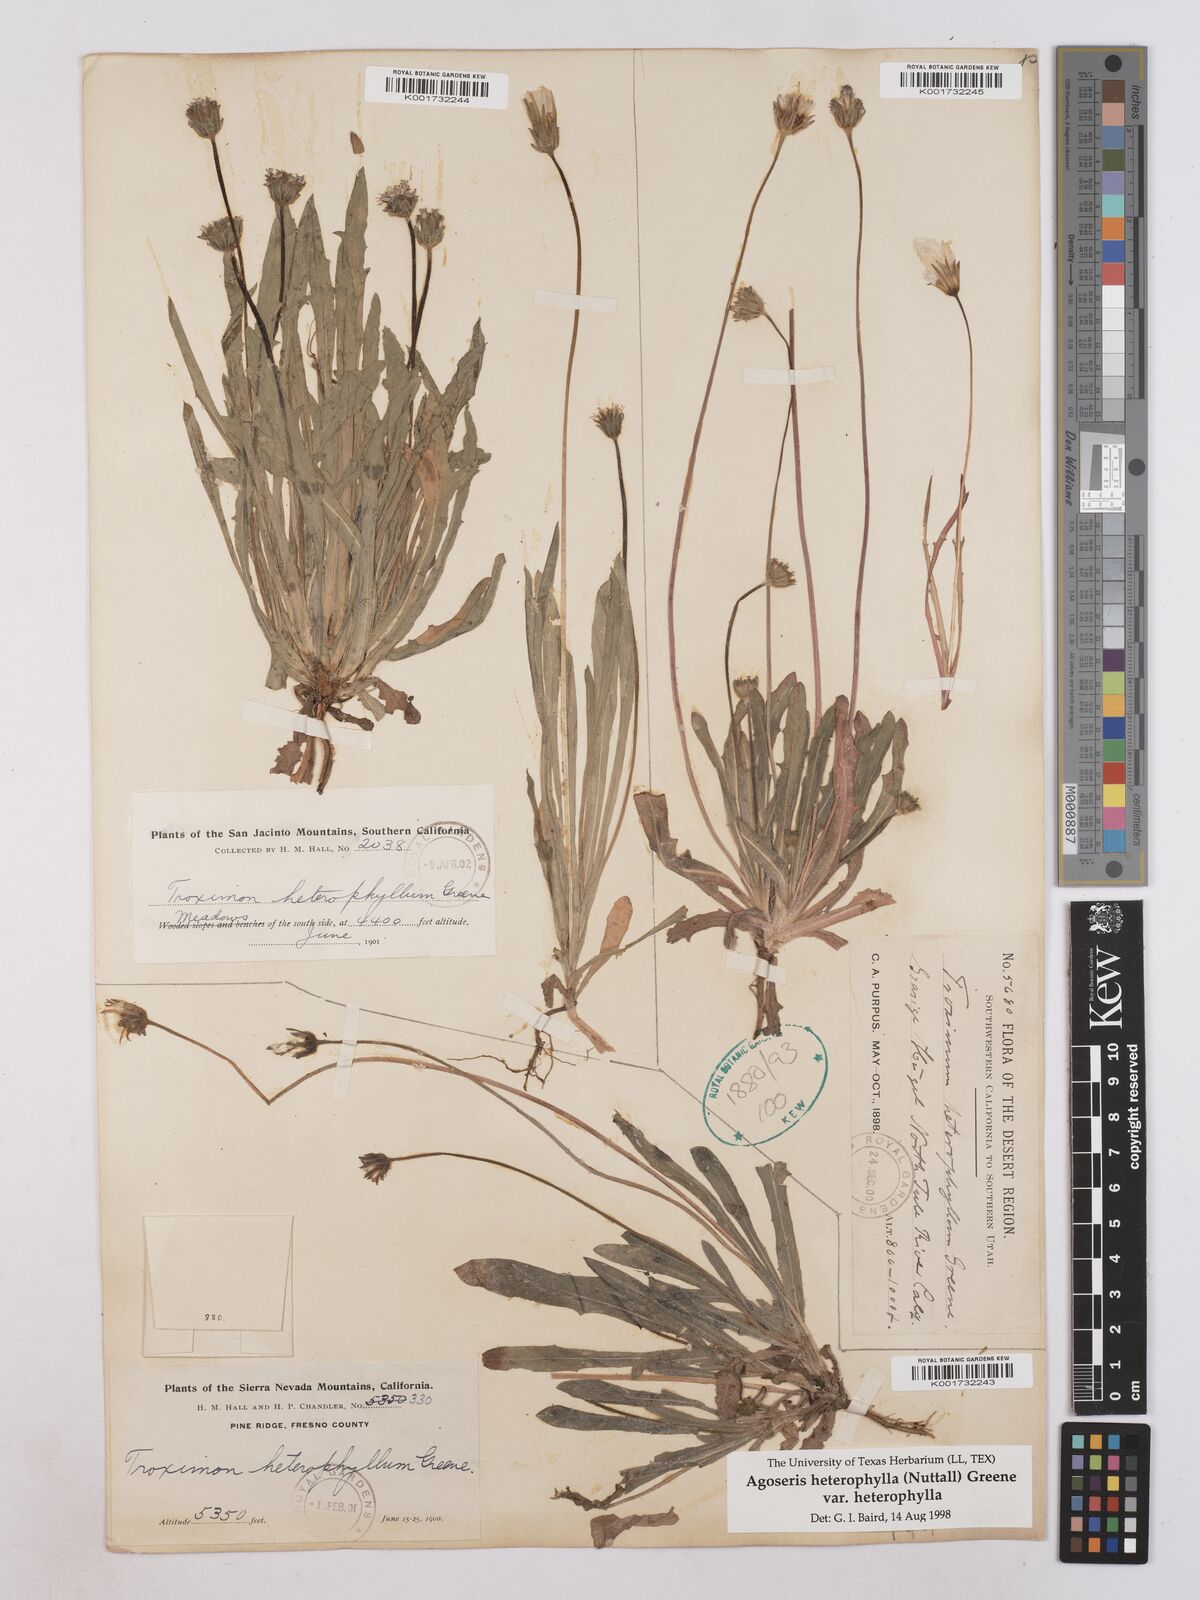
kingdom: Plantae
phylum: Tracheophyta
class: Magnoliopsida
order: Asterales
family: Asteraceae
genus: Agoseris
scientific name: Agoseris heterophylla
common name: Annual agoseris
